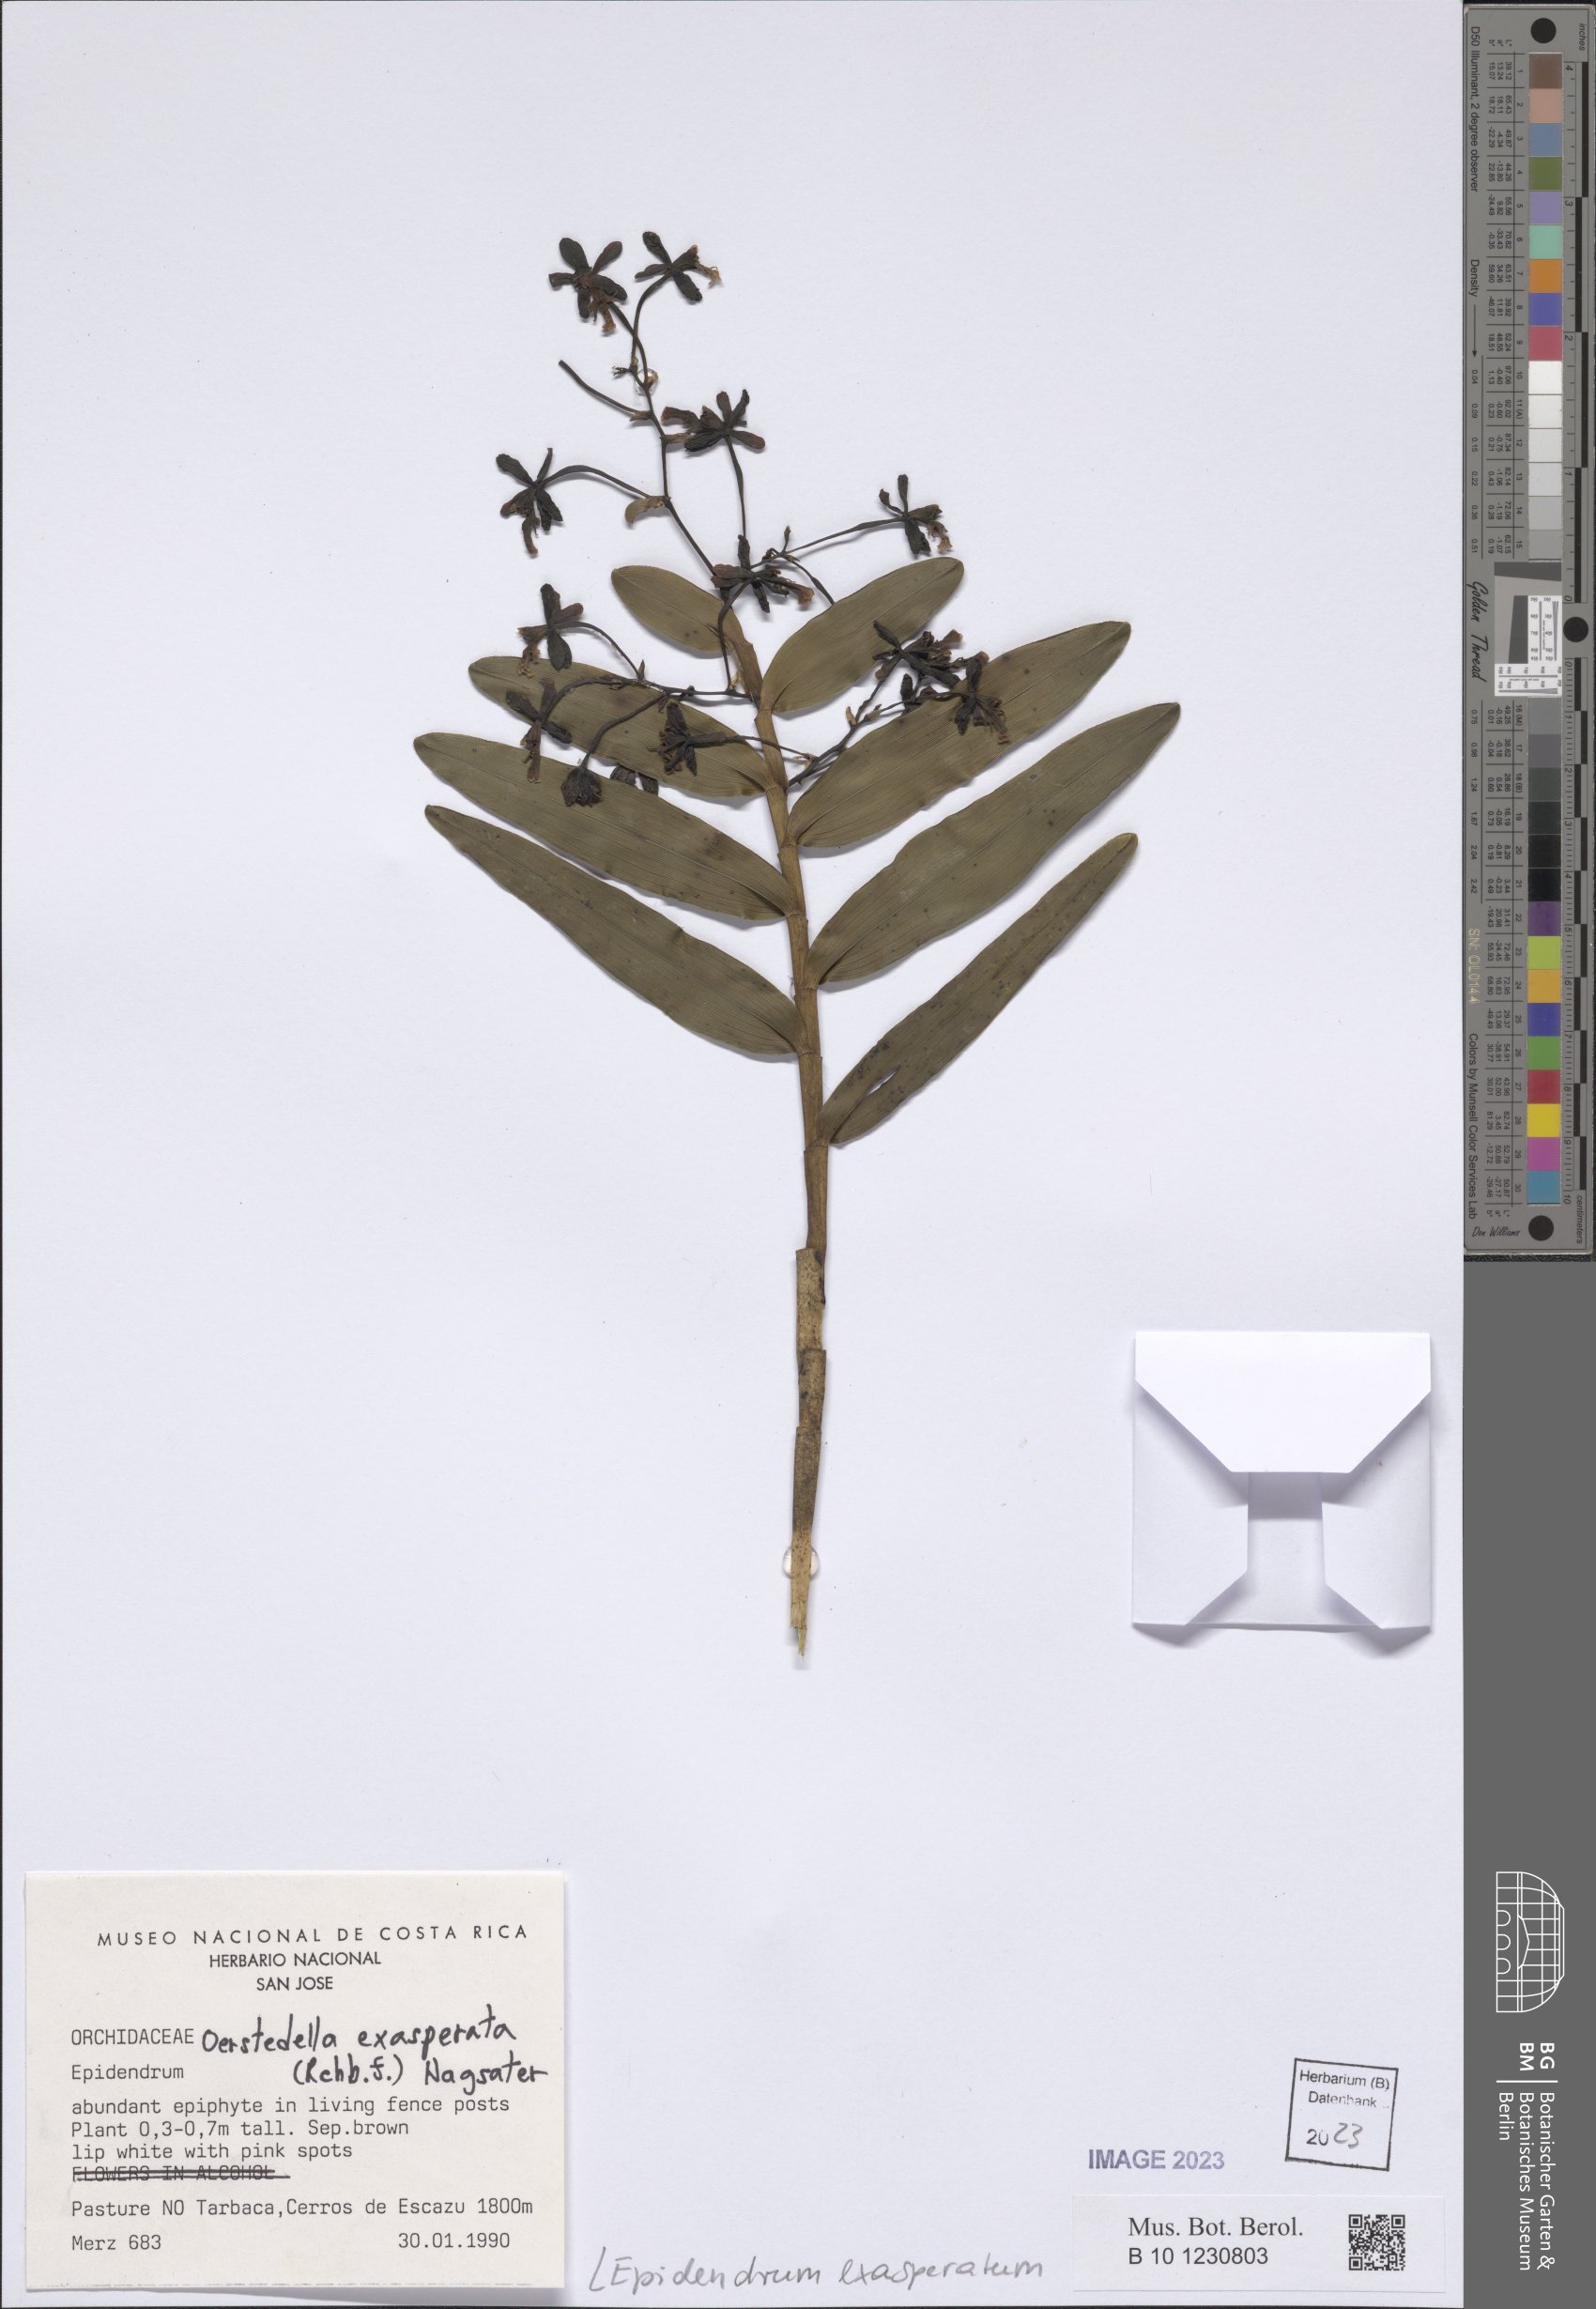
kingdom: Plantae
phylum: Tracheophyta
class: Liliopsida
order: Asparagales
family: Orchidaceae
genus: Epidendrum
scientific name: Epidendrum exasperatum
